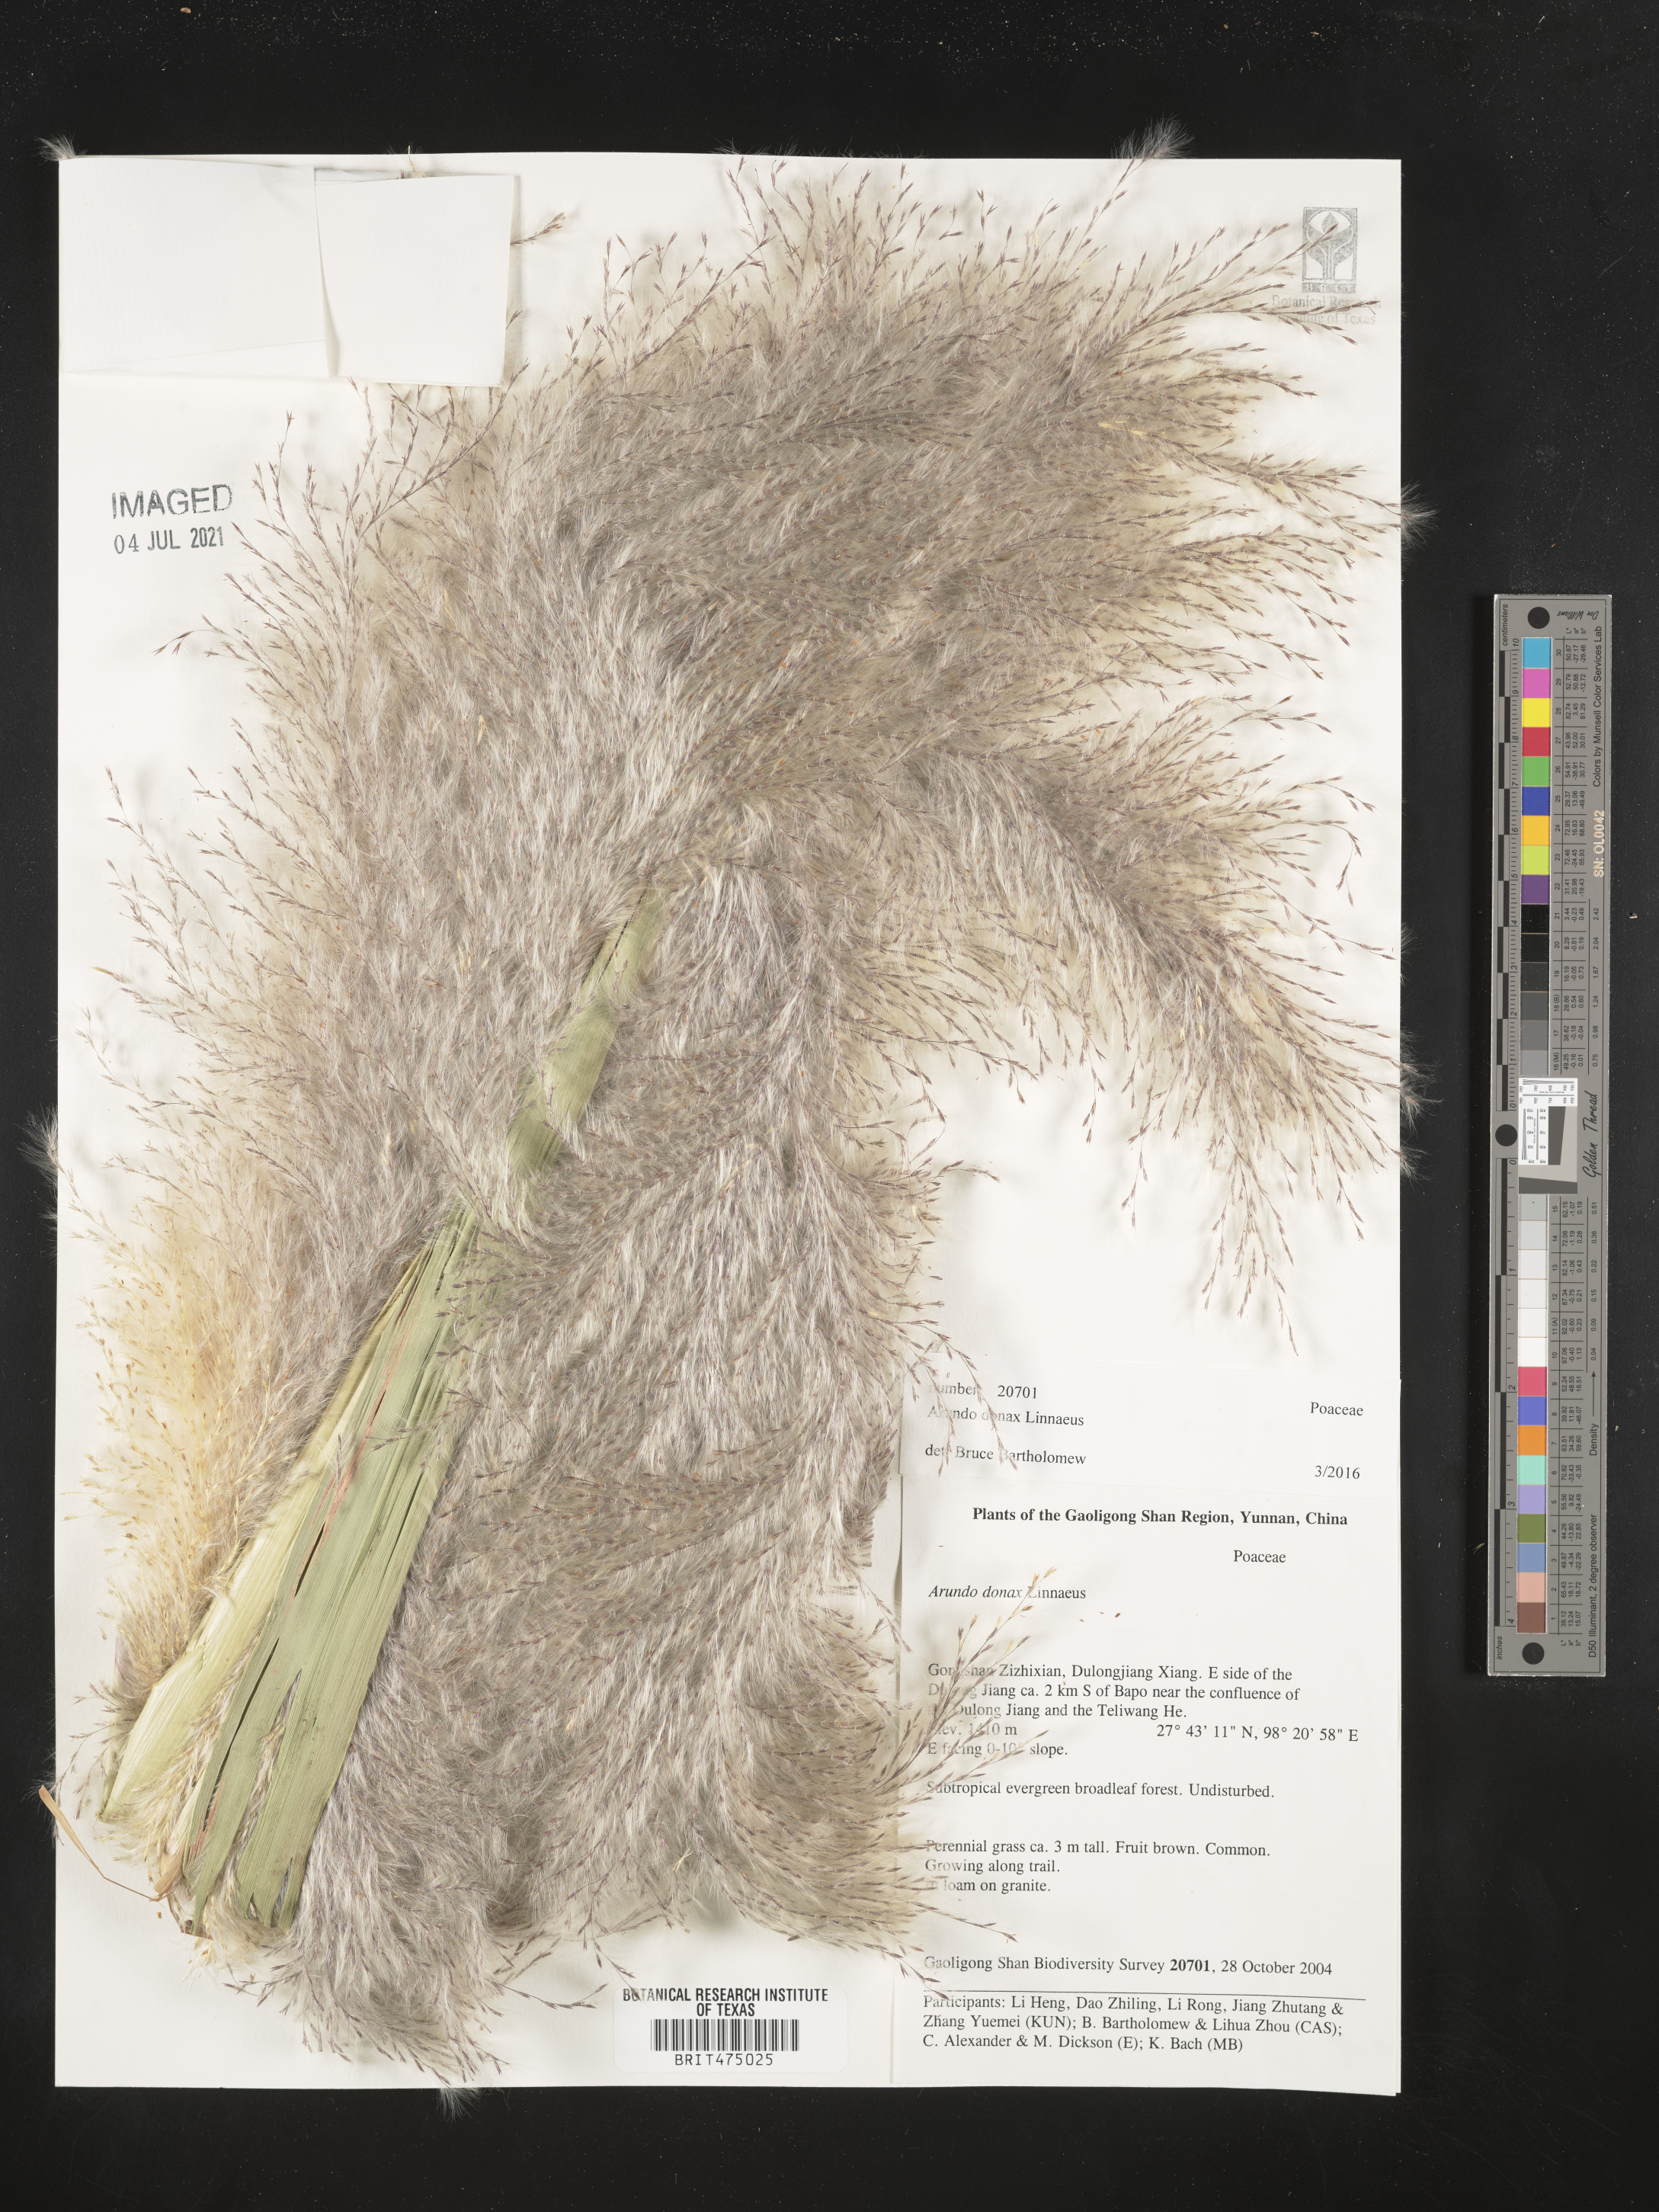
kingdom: Plantae
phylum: Tracheophyta
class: Liliopsida
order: Poales
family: Poaceae
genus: Arundo
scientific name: Arundo donax
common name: Giant reed
